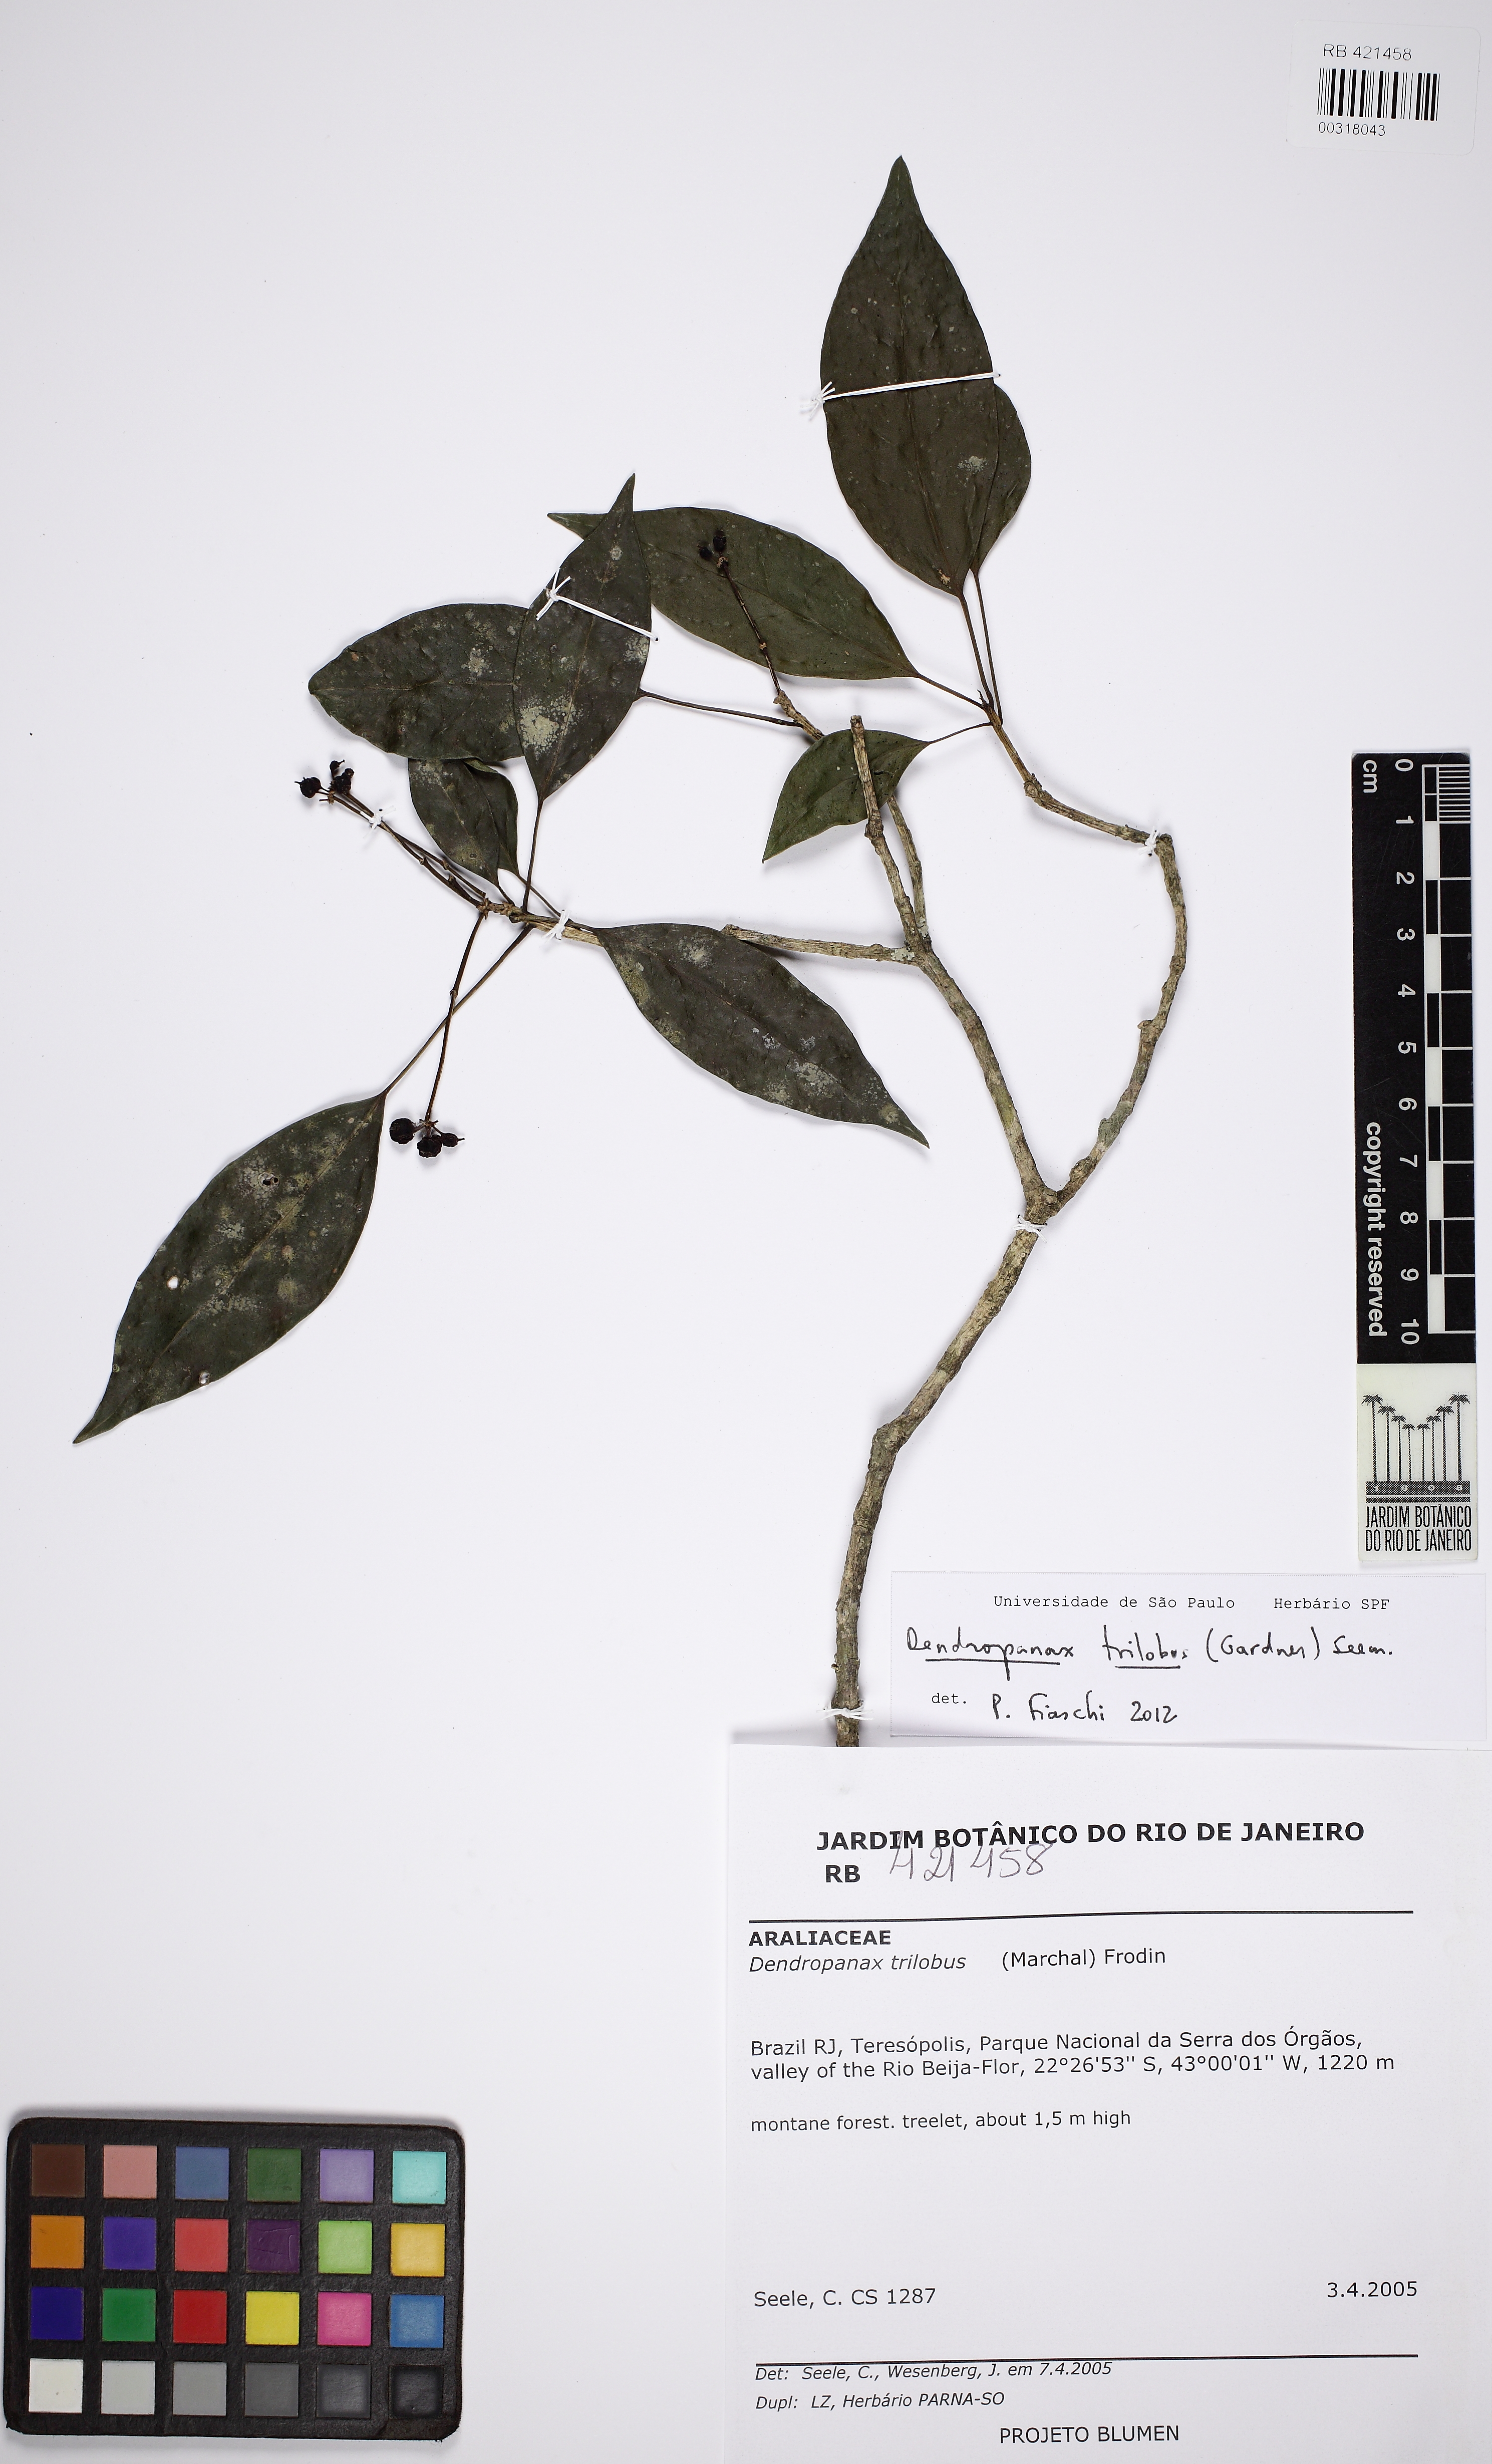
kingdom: Plantae
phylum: Tracheophyta
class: Magnoliopsida
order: Apiales
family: Araliaceae
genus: Dendropanax
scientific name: Dendropanax trilobus
